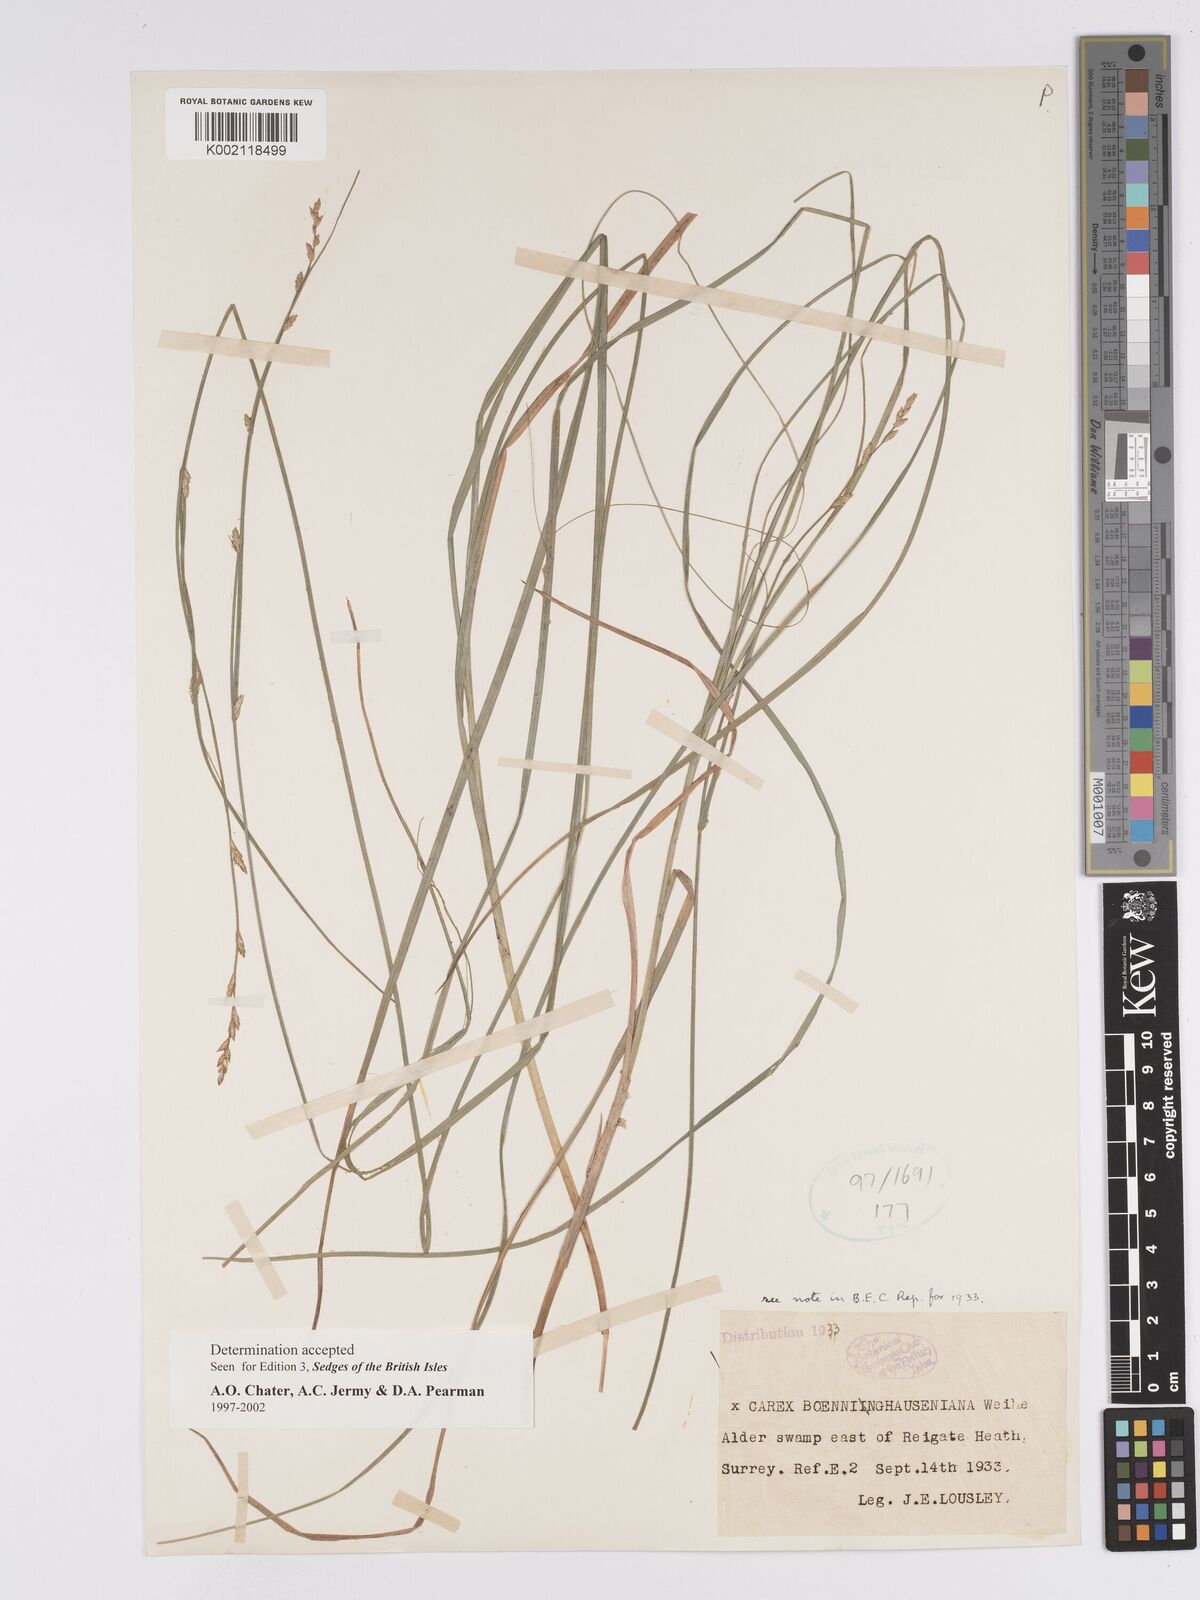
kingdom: Plantae
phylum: Tracheophyta
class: Liliopsida
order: Poales
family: Cyperaceae
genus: Carex
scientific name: Carex boenninghausiana
